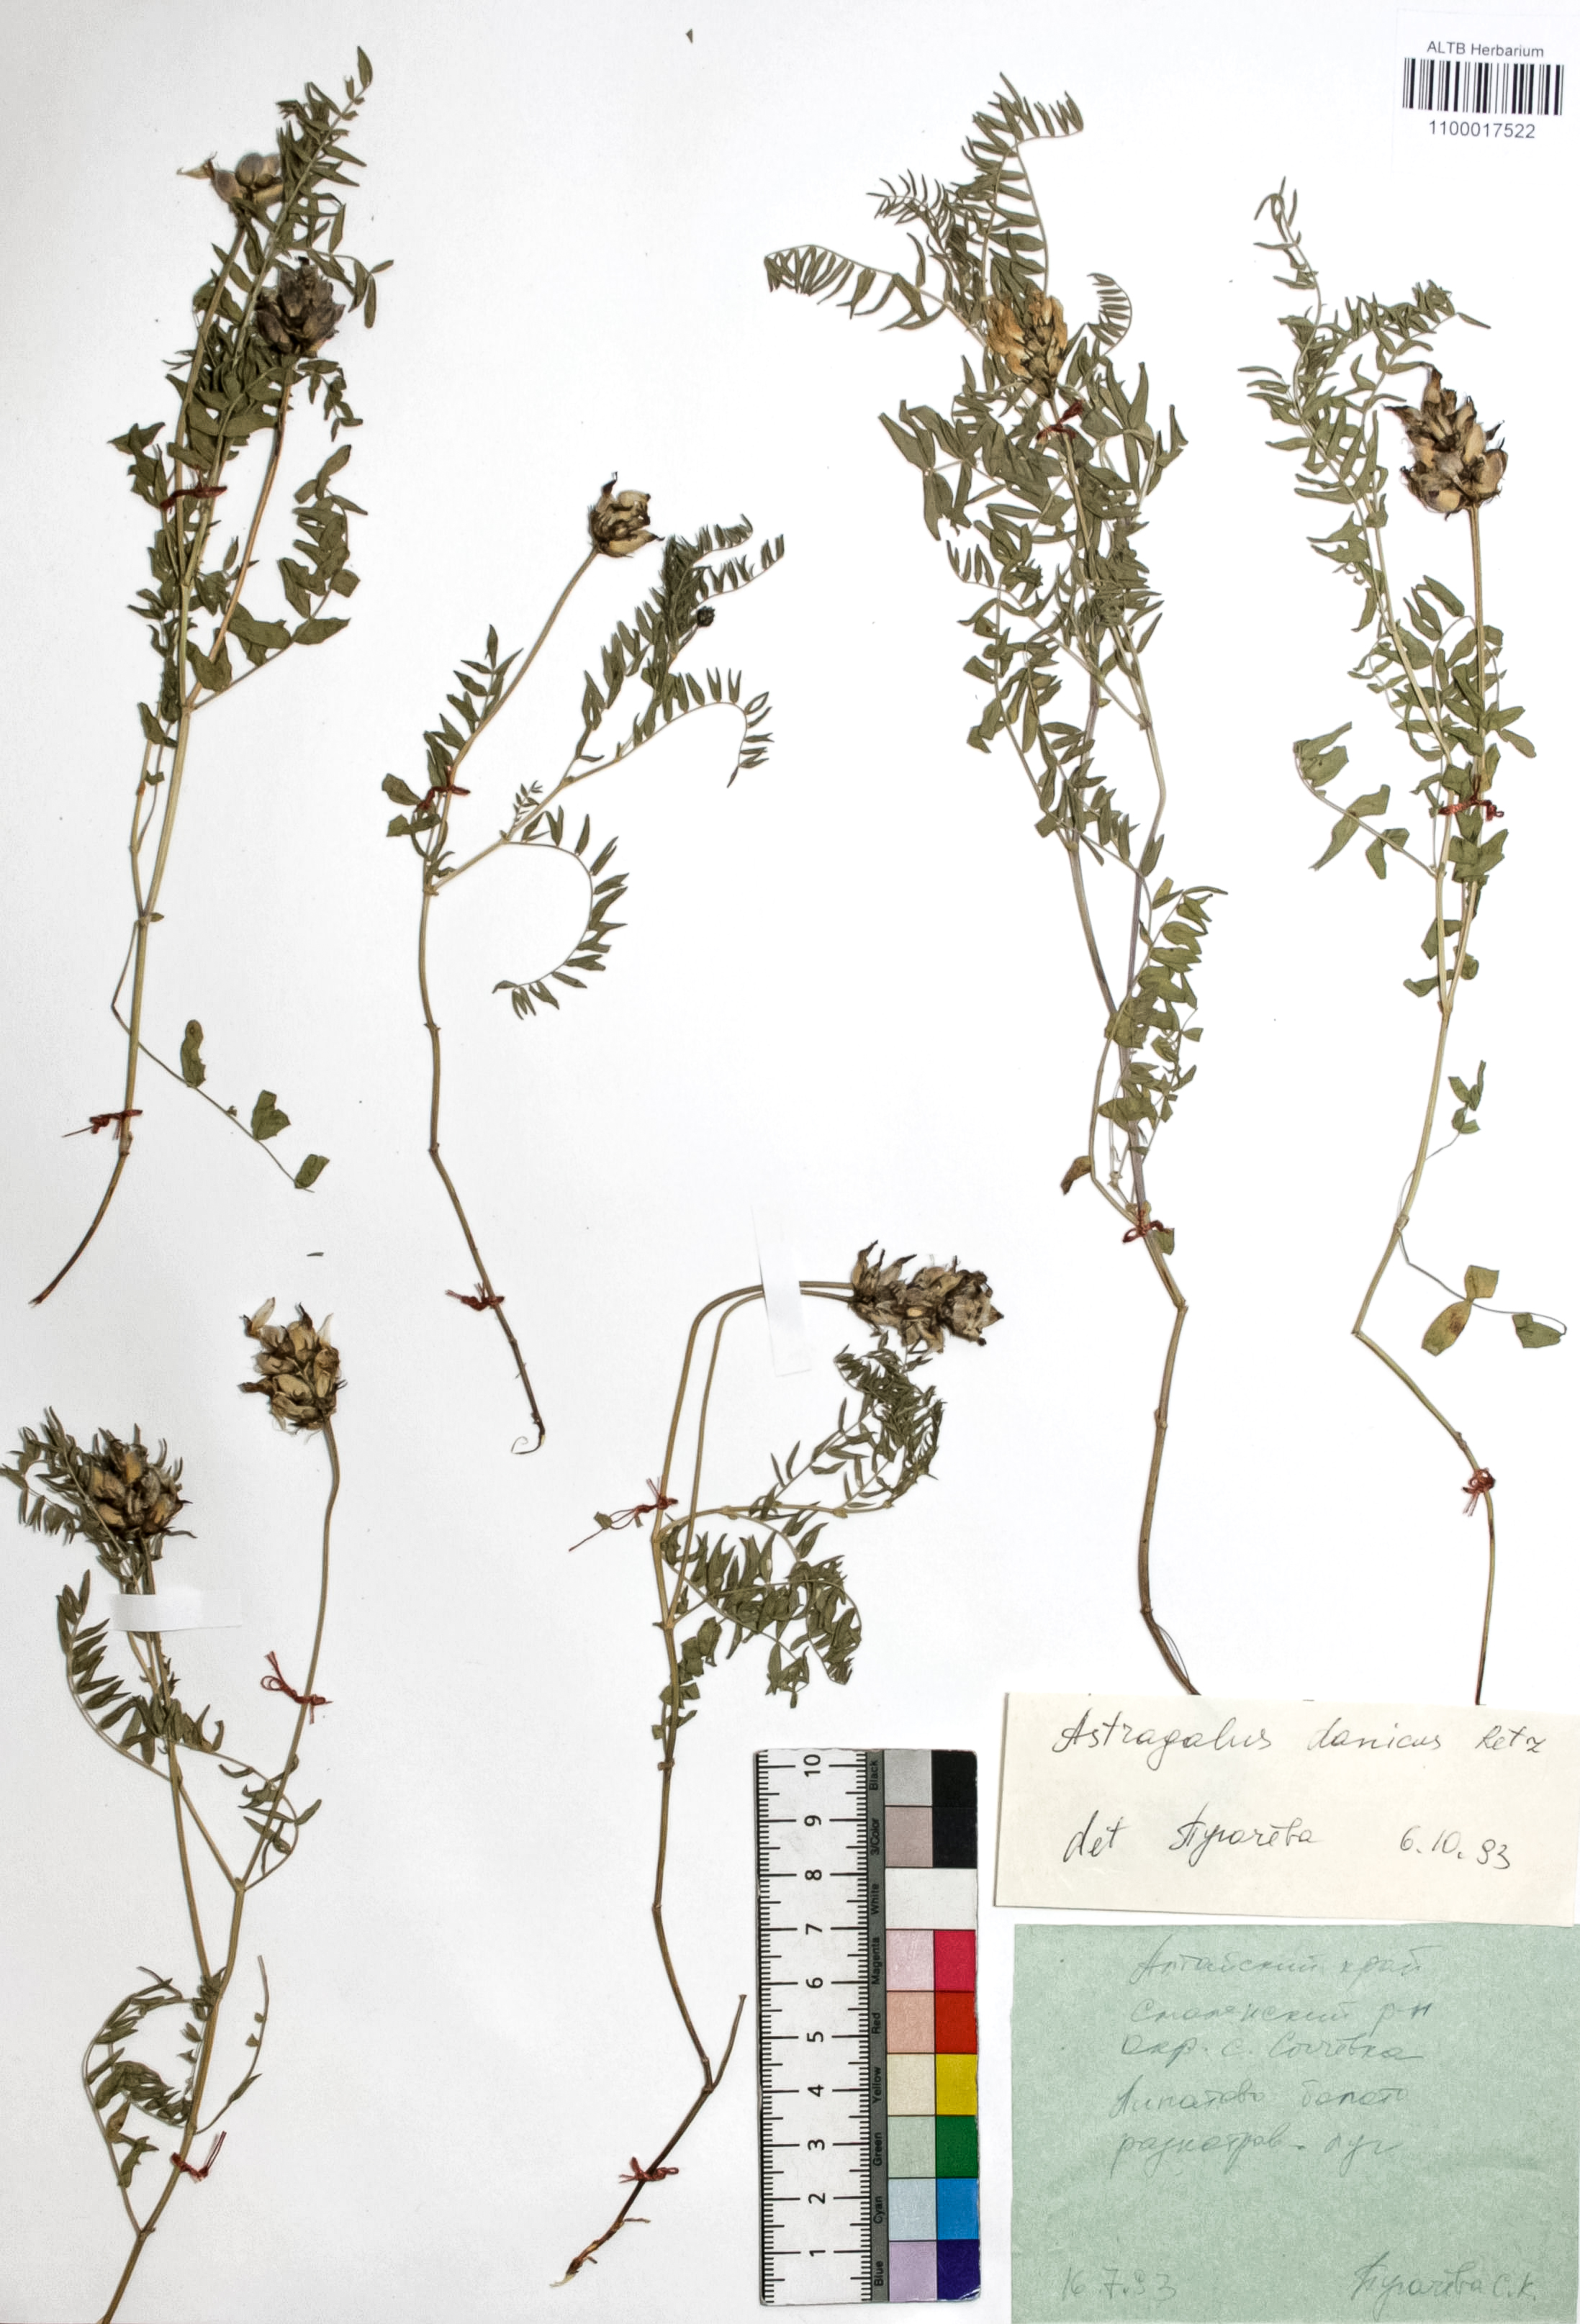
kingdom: Plantae
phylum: Tracheophyta
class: Magnoliopsida
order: Fabales
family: Fabaceae
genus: Astragalus
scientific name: Astragalus danicus
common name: Purple milk-vetch
